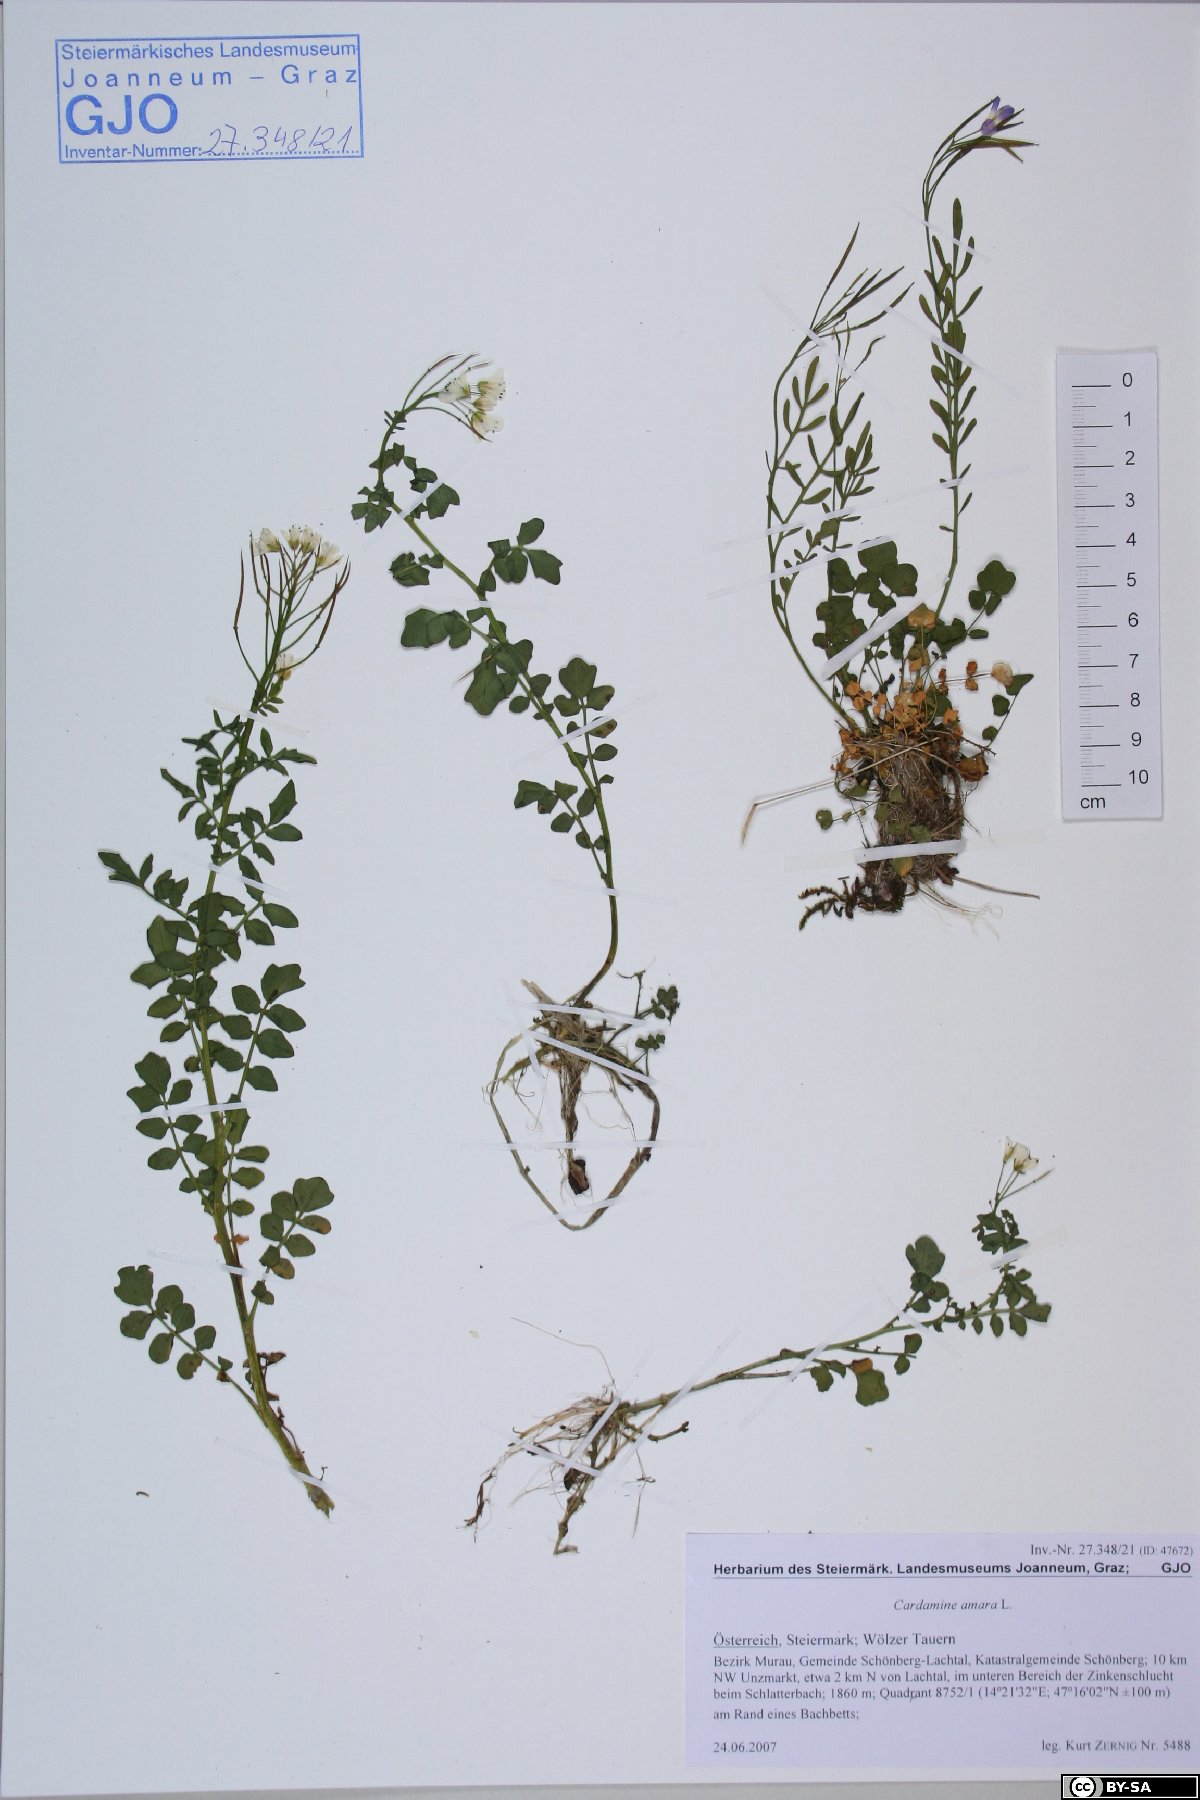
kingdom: Plantae
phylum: Tracheophyta
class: Magnoliopsida
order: Brassicales
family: Brassicaceae
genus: Cardamine
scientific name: Cardamine amara
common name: Large bitter-cress
